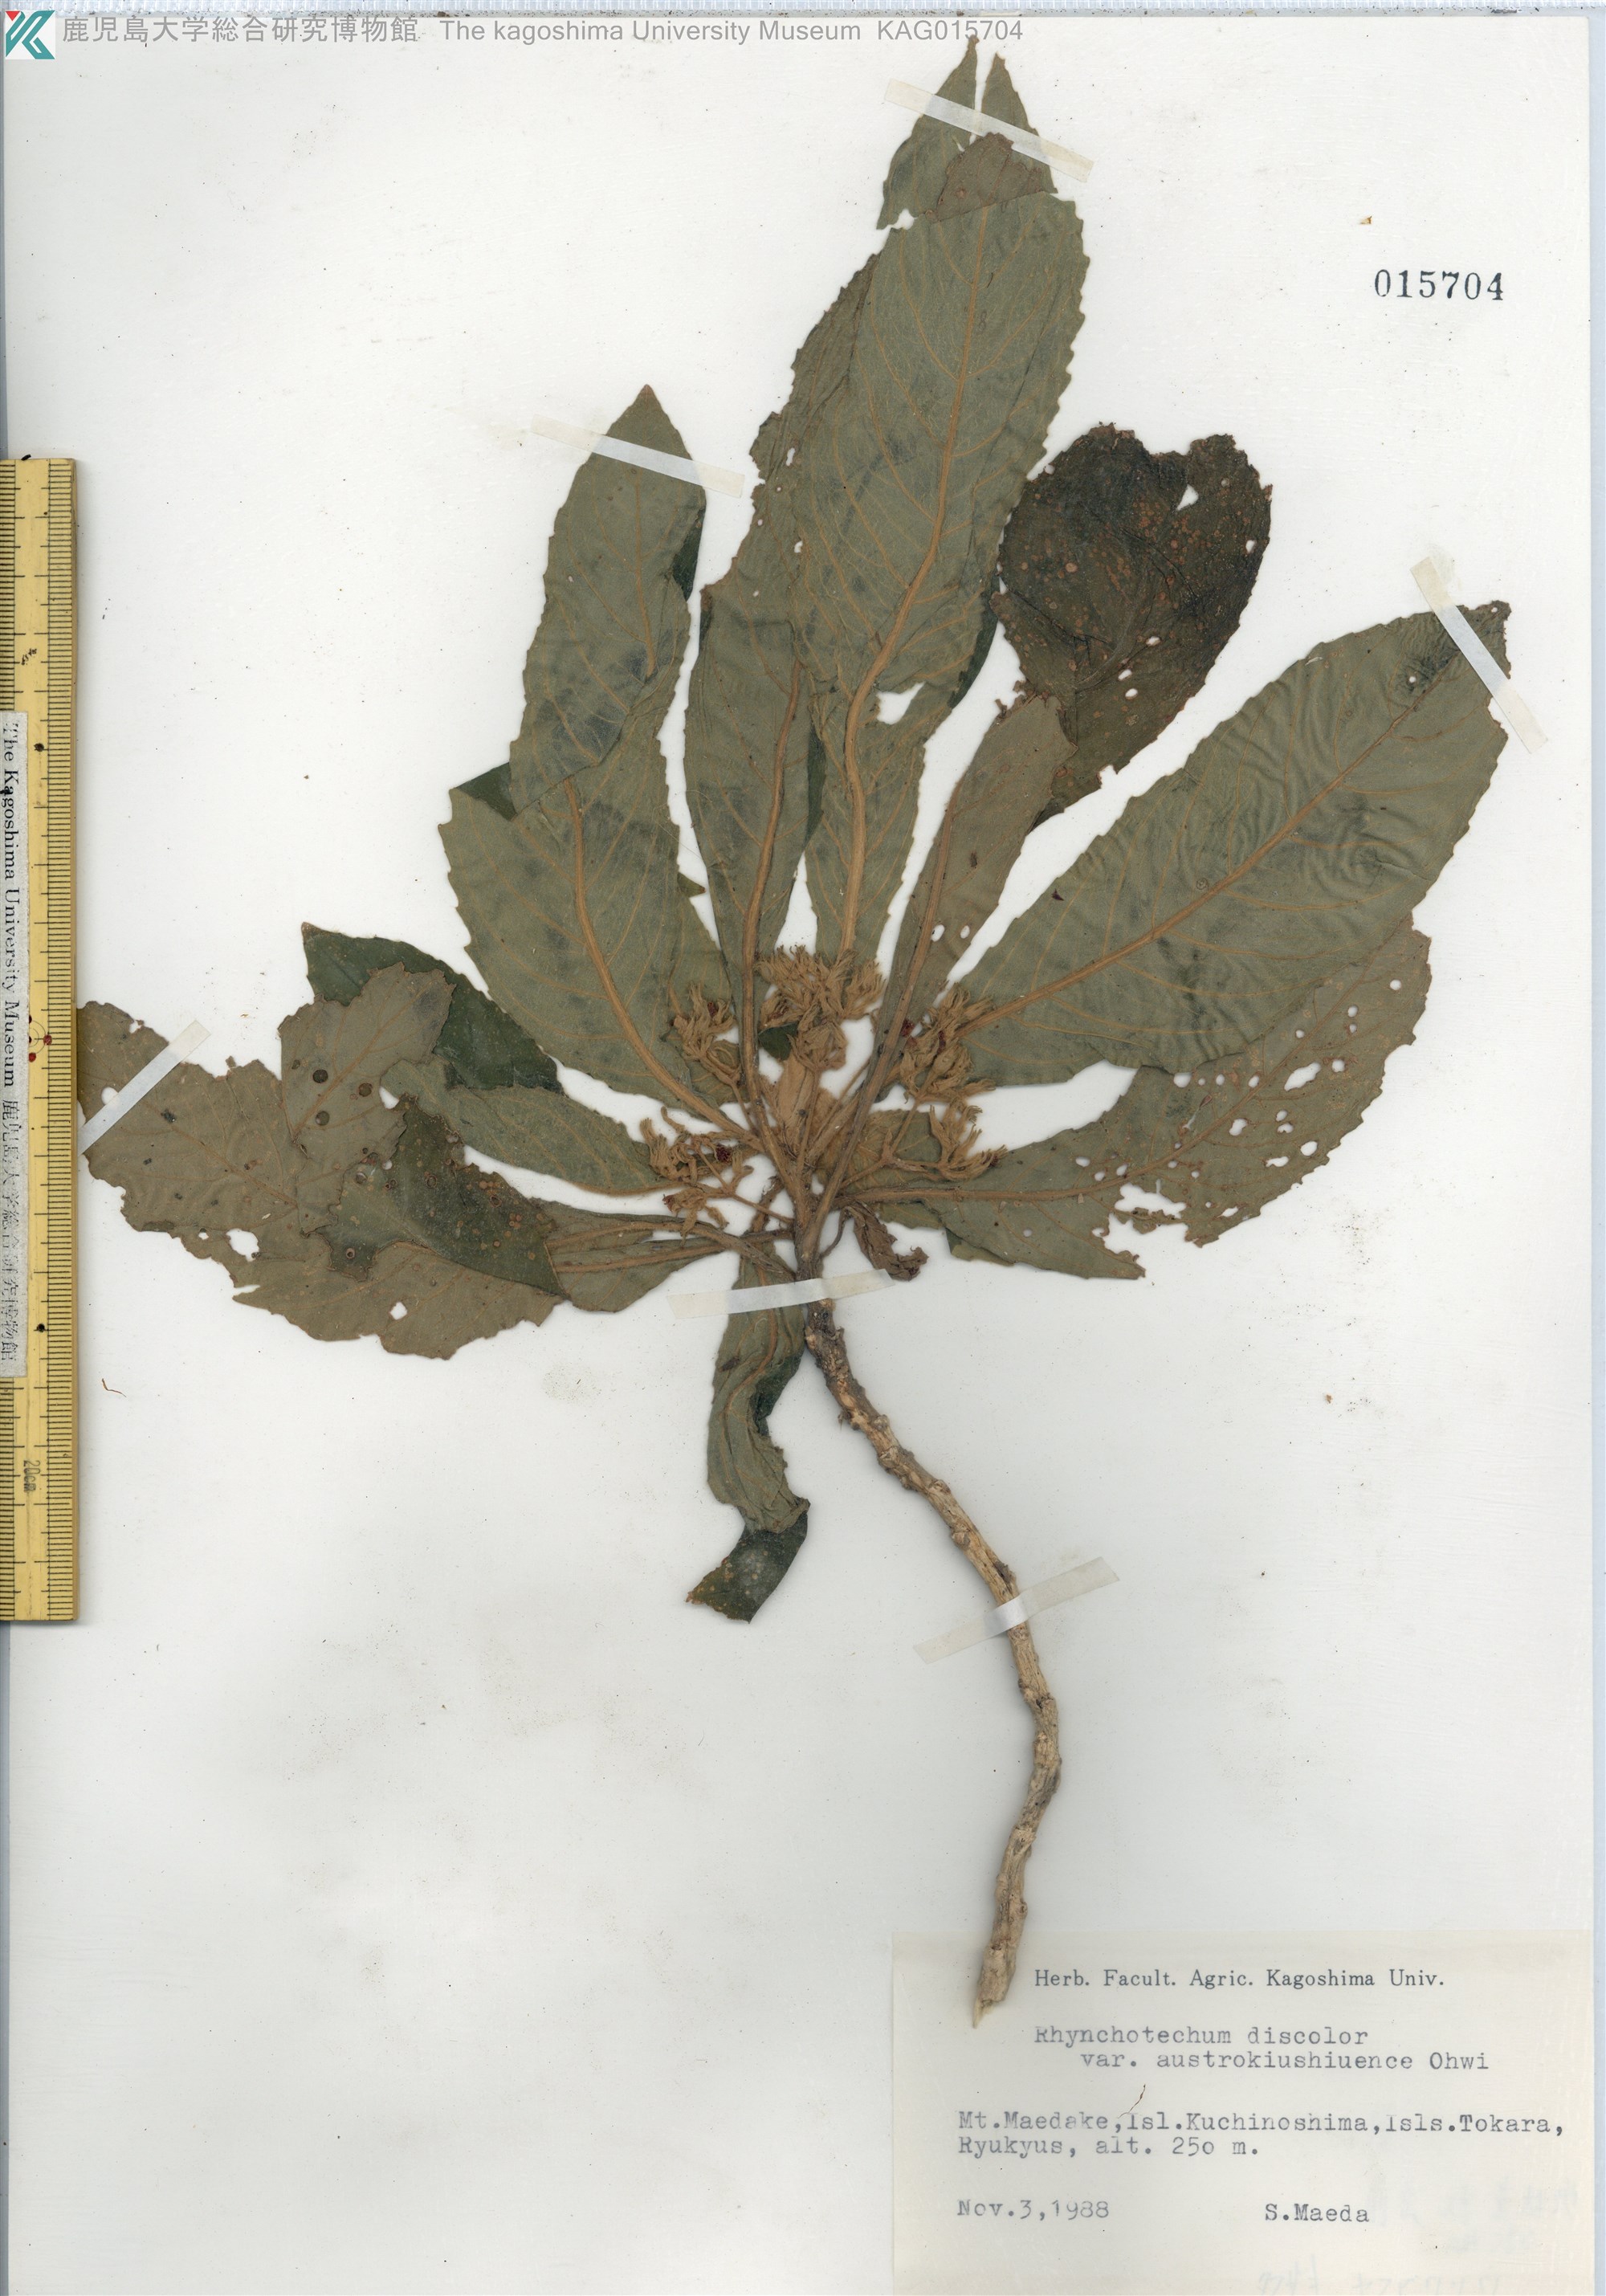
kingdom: Plantae
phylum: Tracheophyta
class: Magnoliopsida
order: Lamiales
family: Gesneriaceae
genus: Rhynchotechum
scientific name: Rhynchotechum discolor
